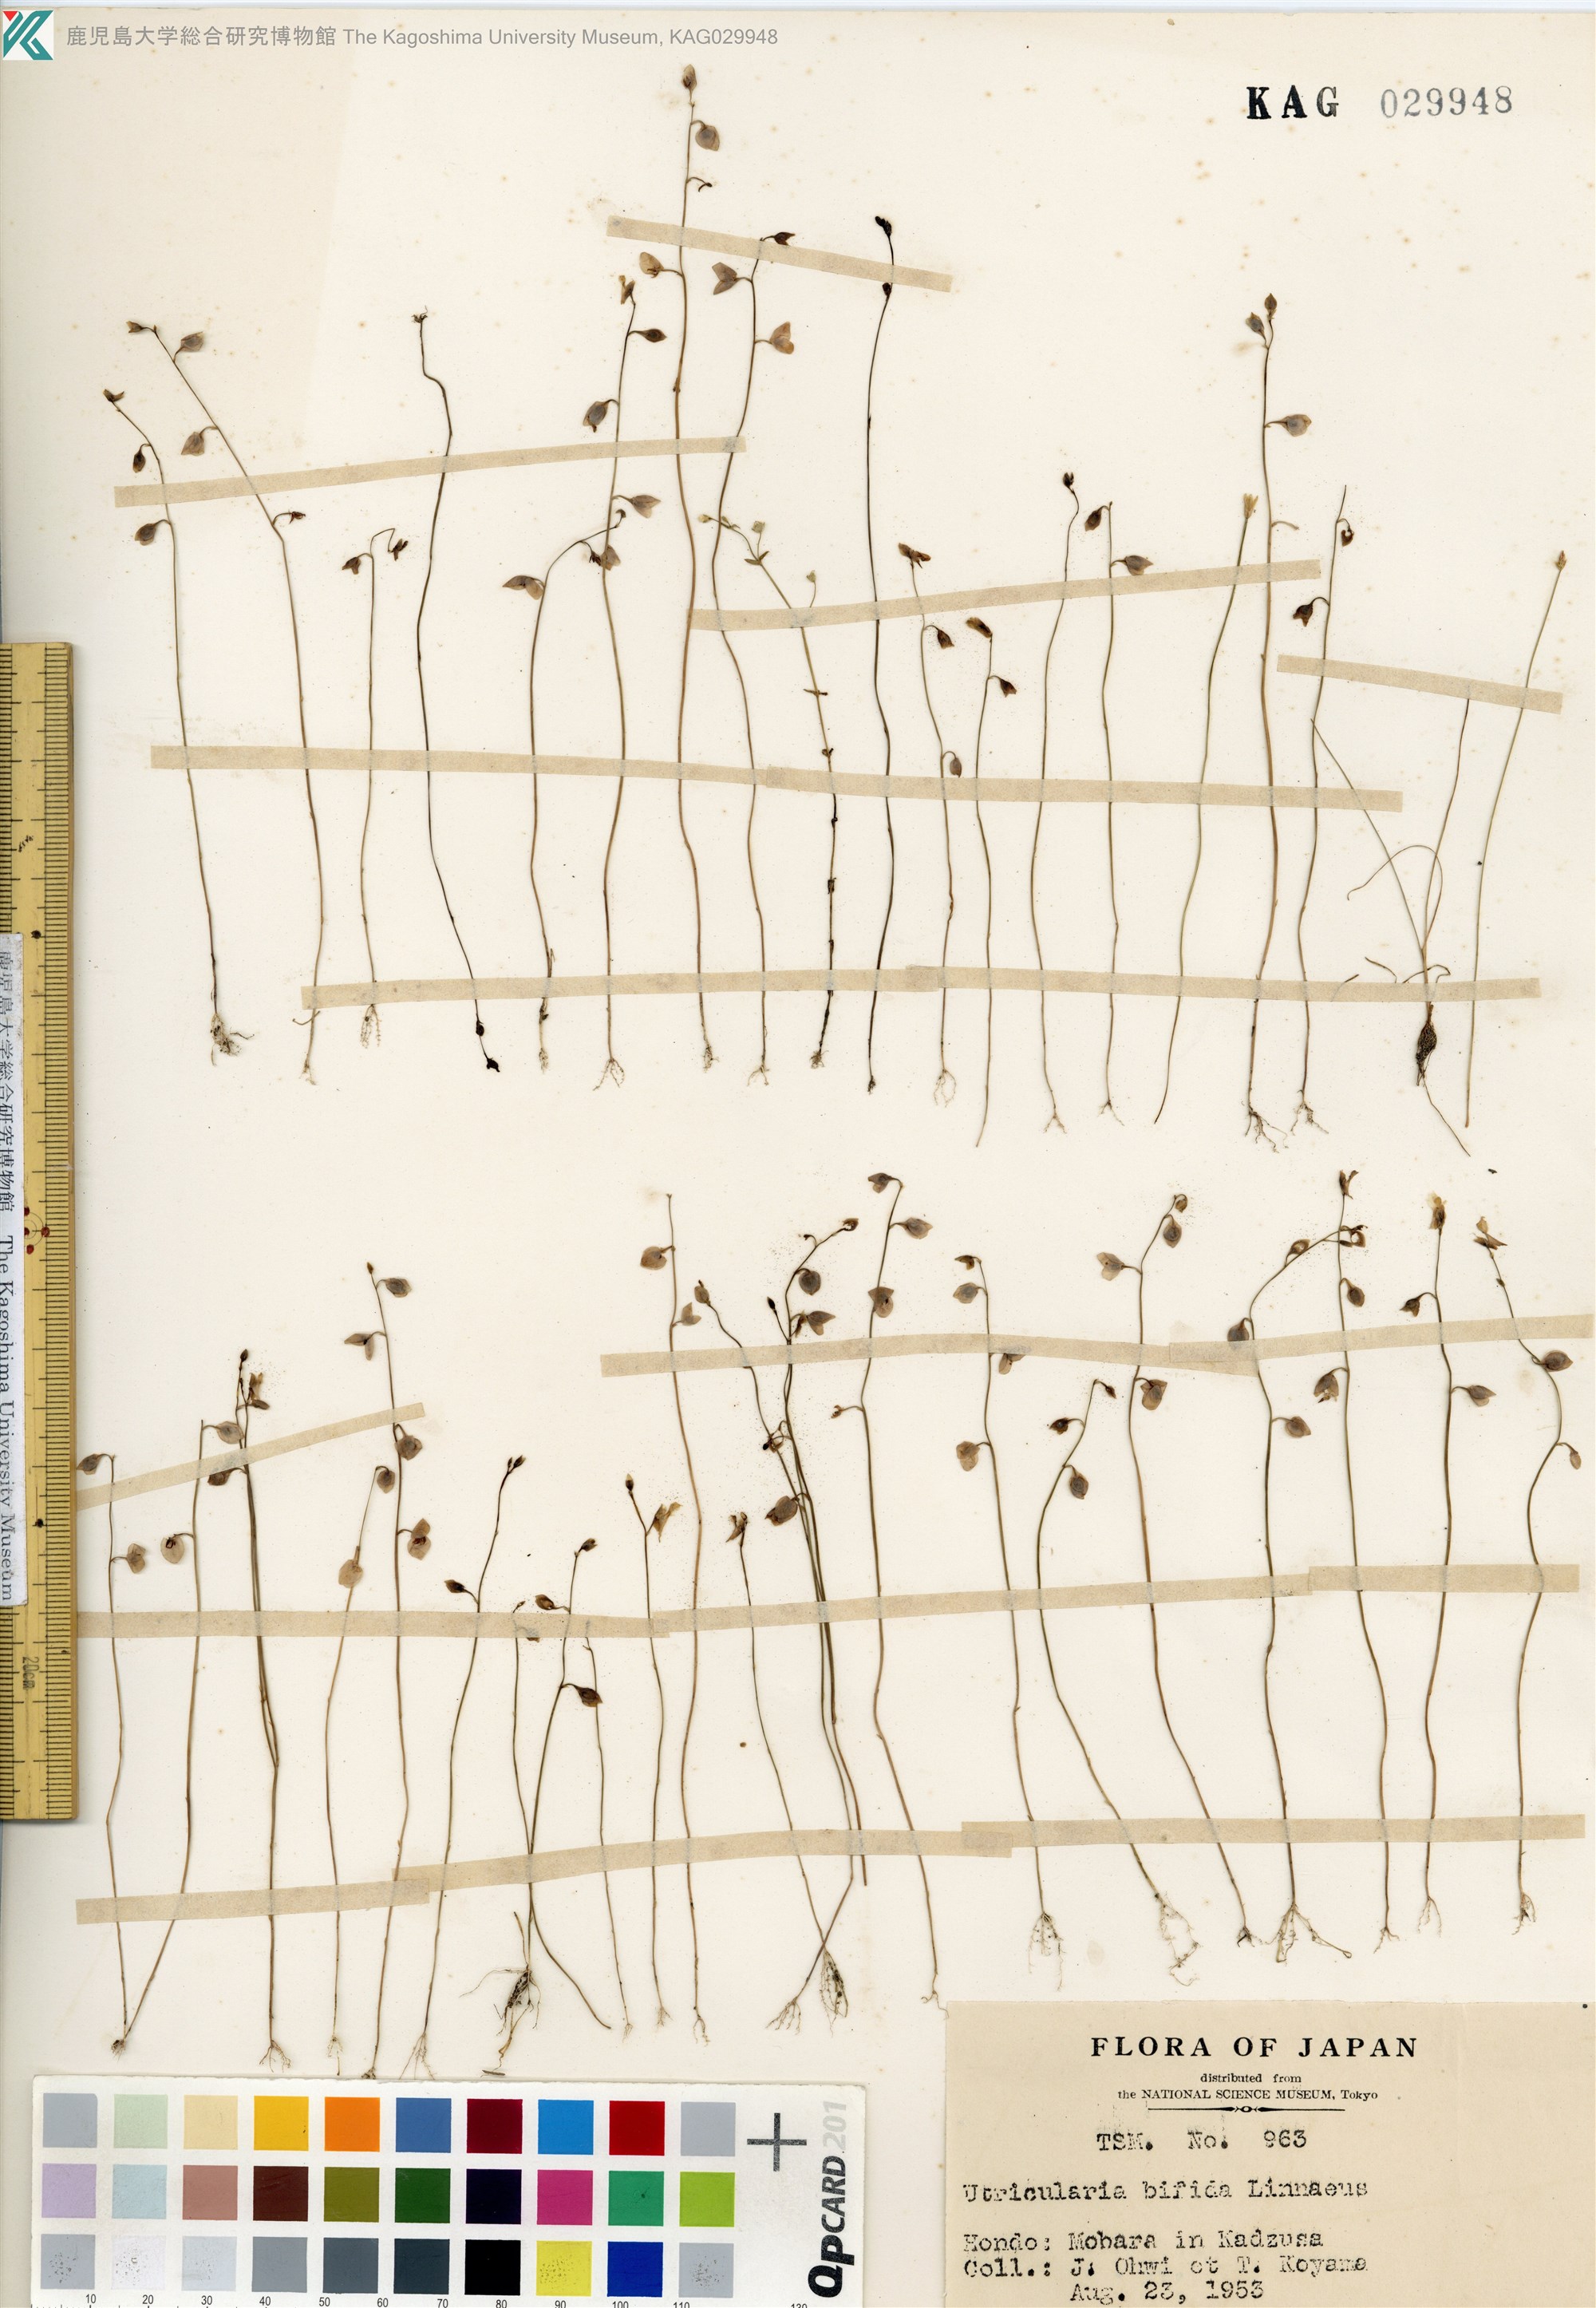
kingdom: Plantae
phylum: Tracheophyta
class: Magnoliopsida
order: Lamiales
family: Lentibulariaceae
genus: Utricularia
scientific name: Utricularia bifida
